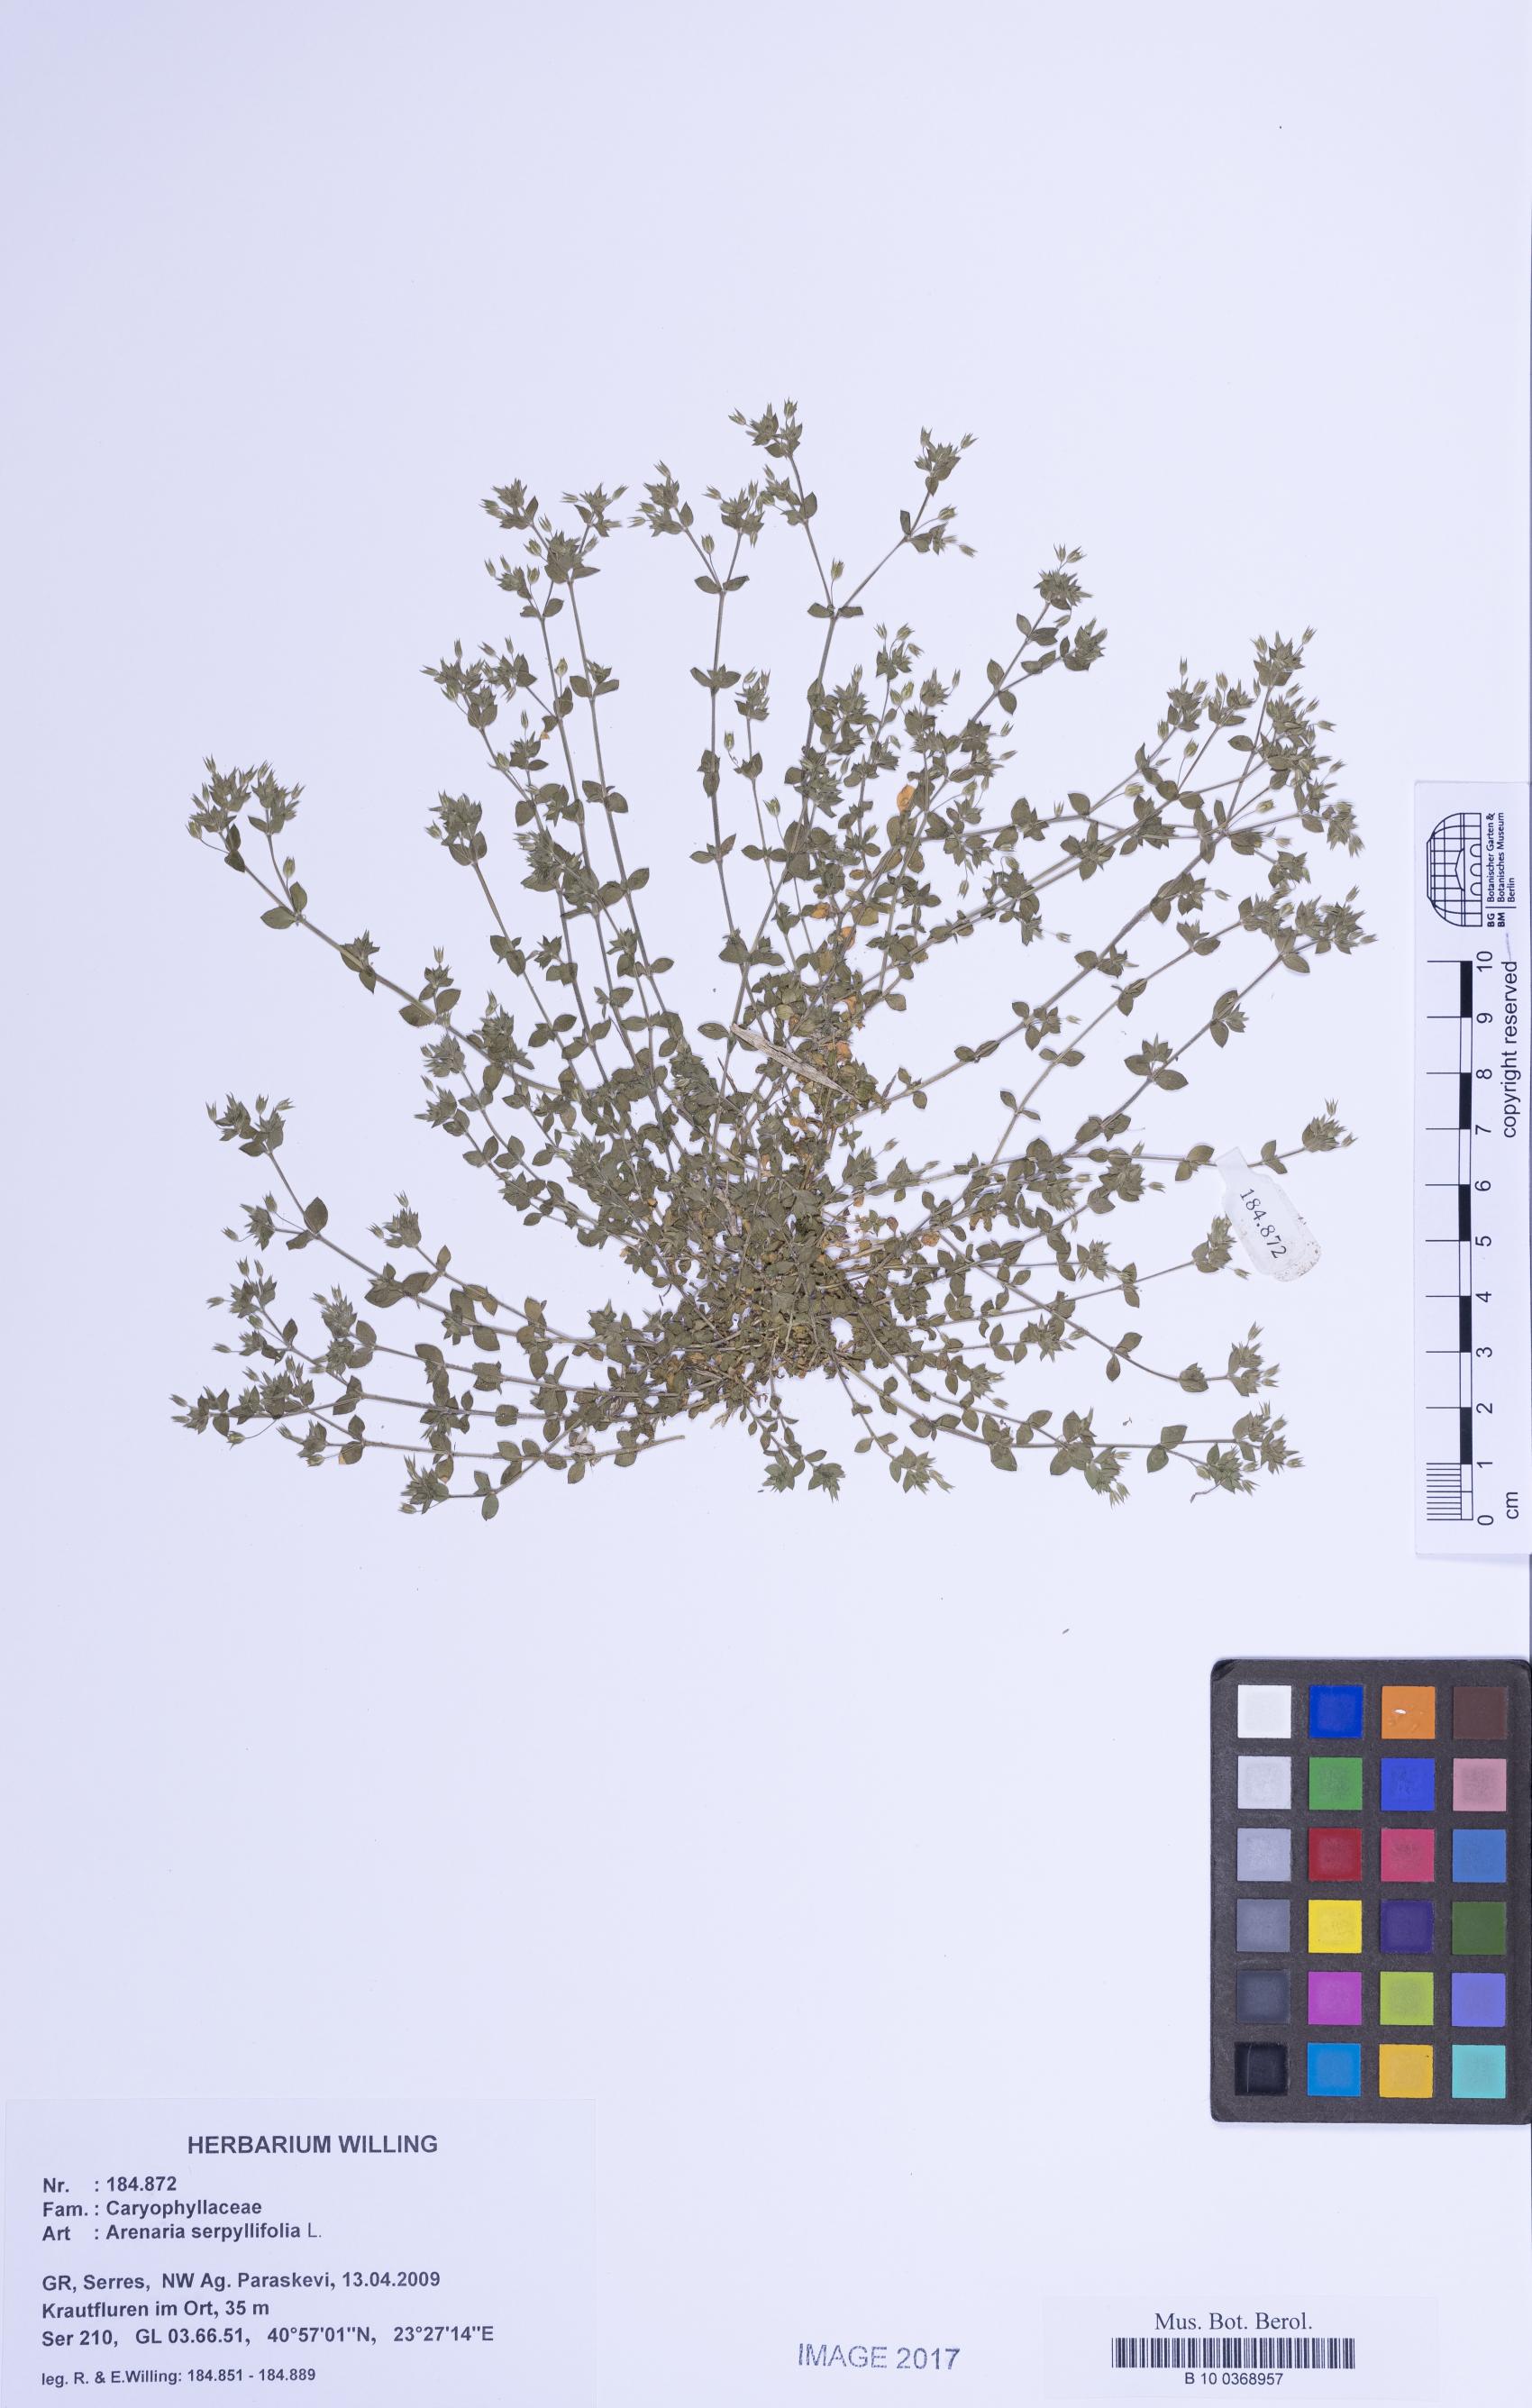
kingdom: Plantae
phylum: Tracheophyta
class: Magnoliopsida
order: Caryophyllales
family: Caryophyllaceae
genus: Arenaria
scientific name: Arenaria serpyllifolia
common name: Thyme-leaved sandwort
